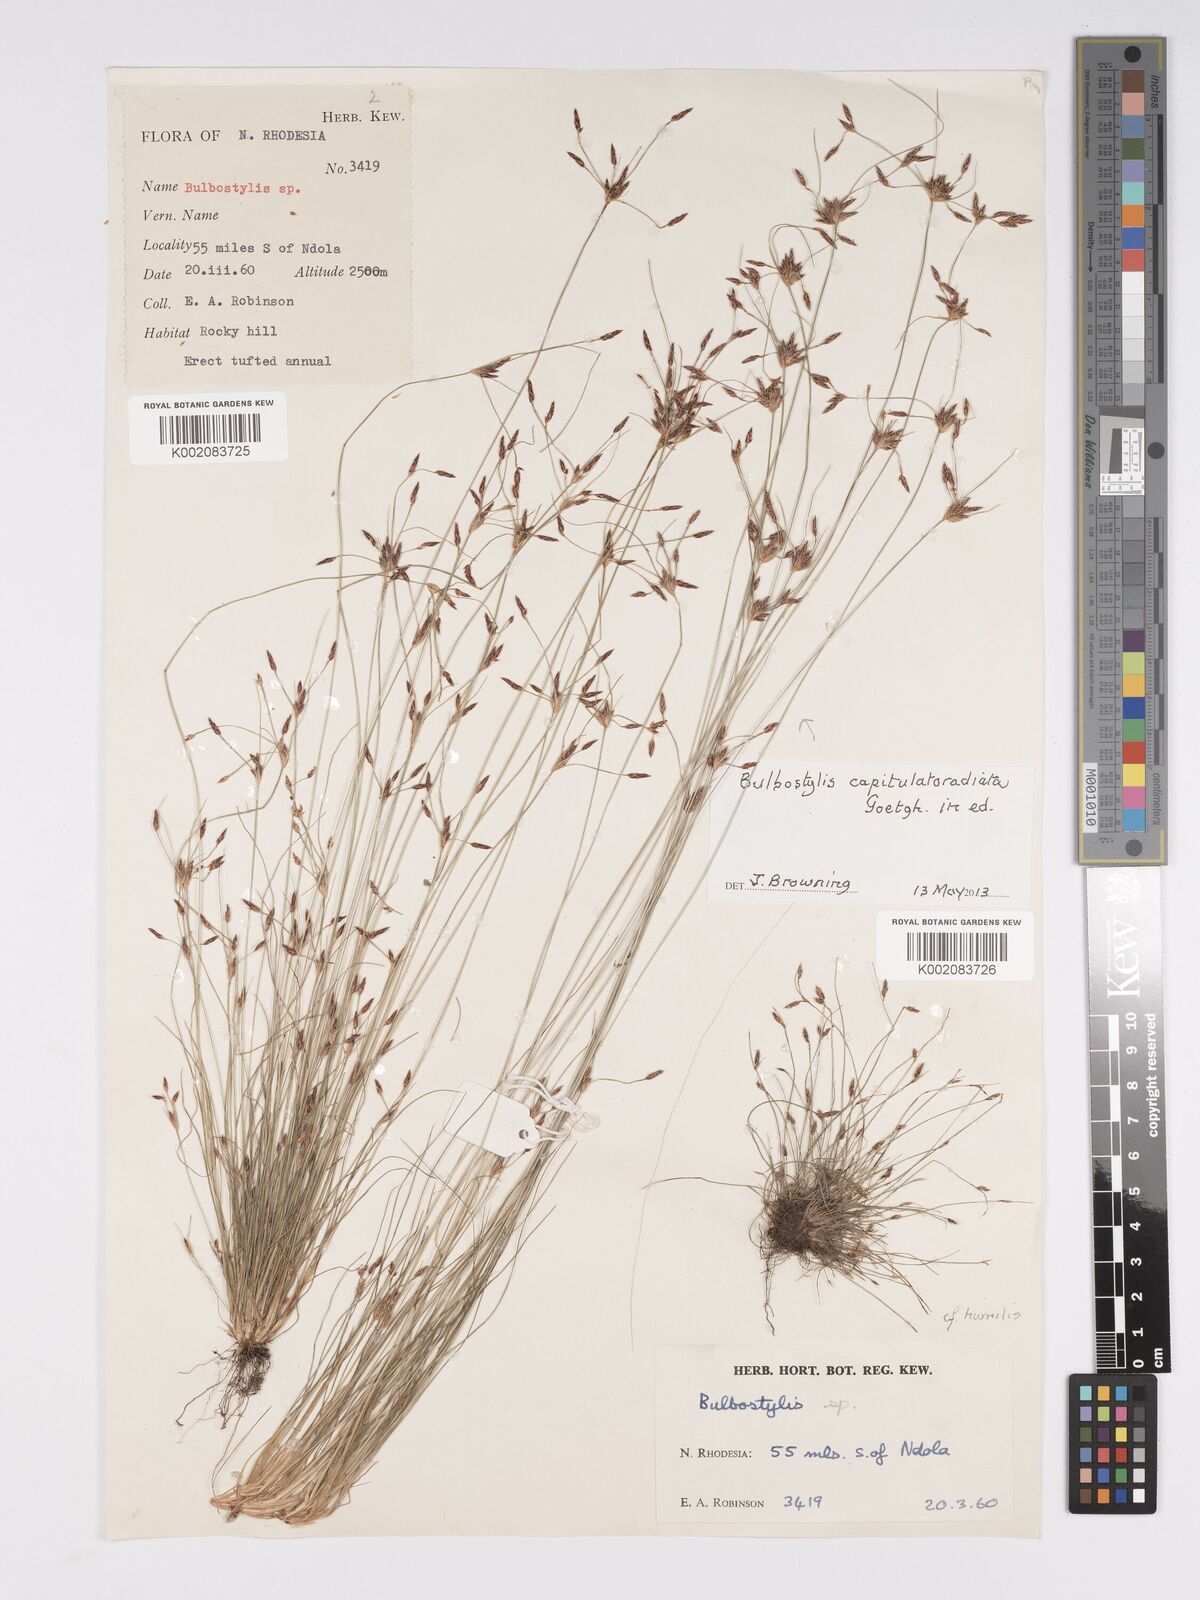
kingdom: Plantae
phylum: Tracheophyta
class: Liliopsida
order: Poales
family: Cyperaceae
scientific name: Cyperaceae
